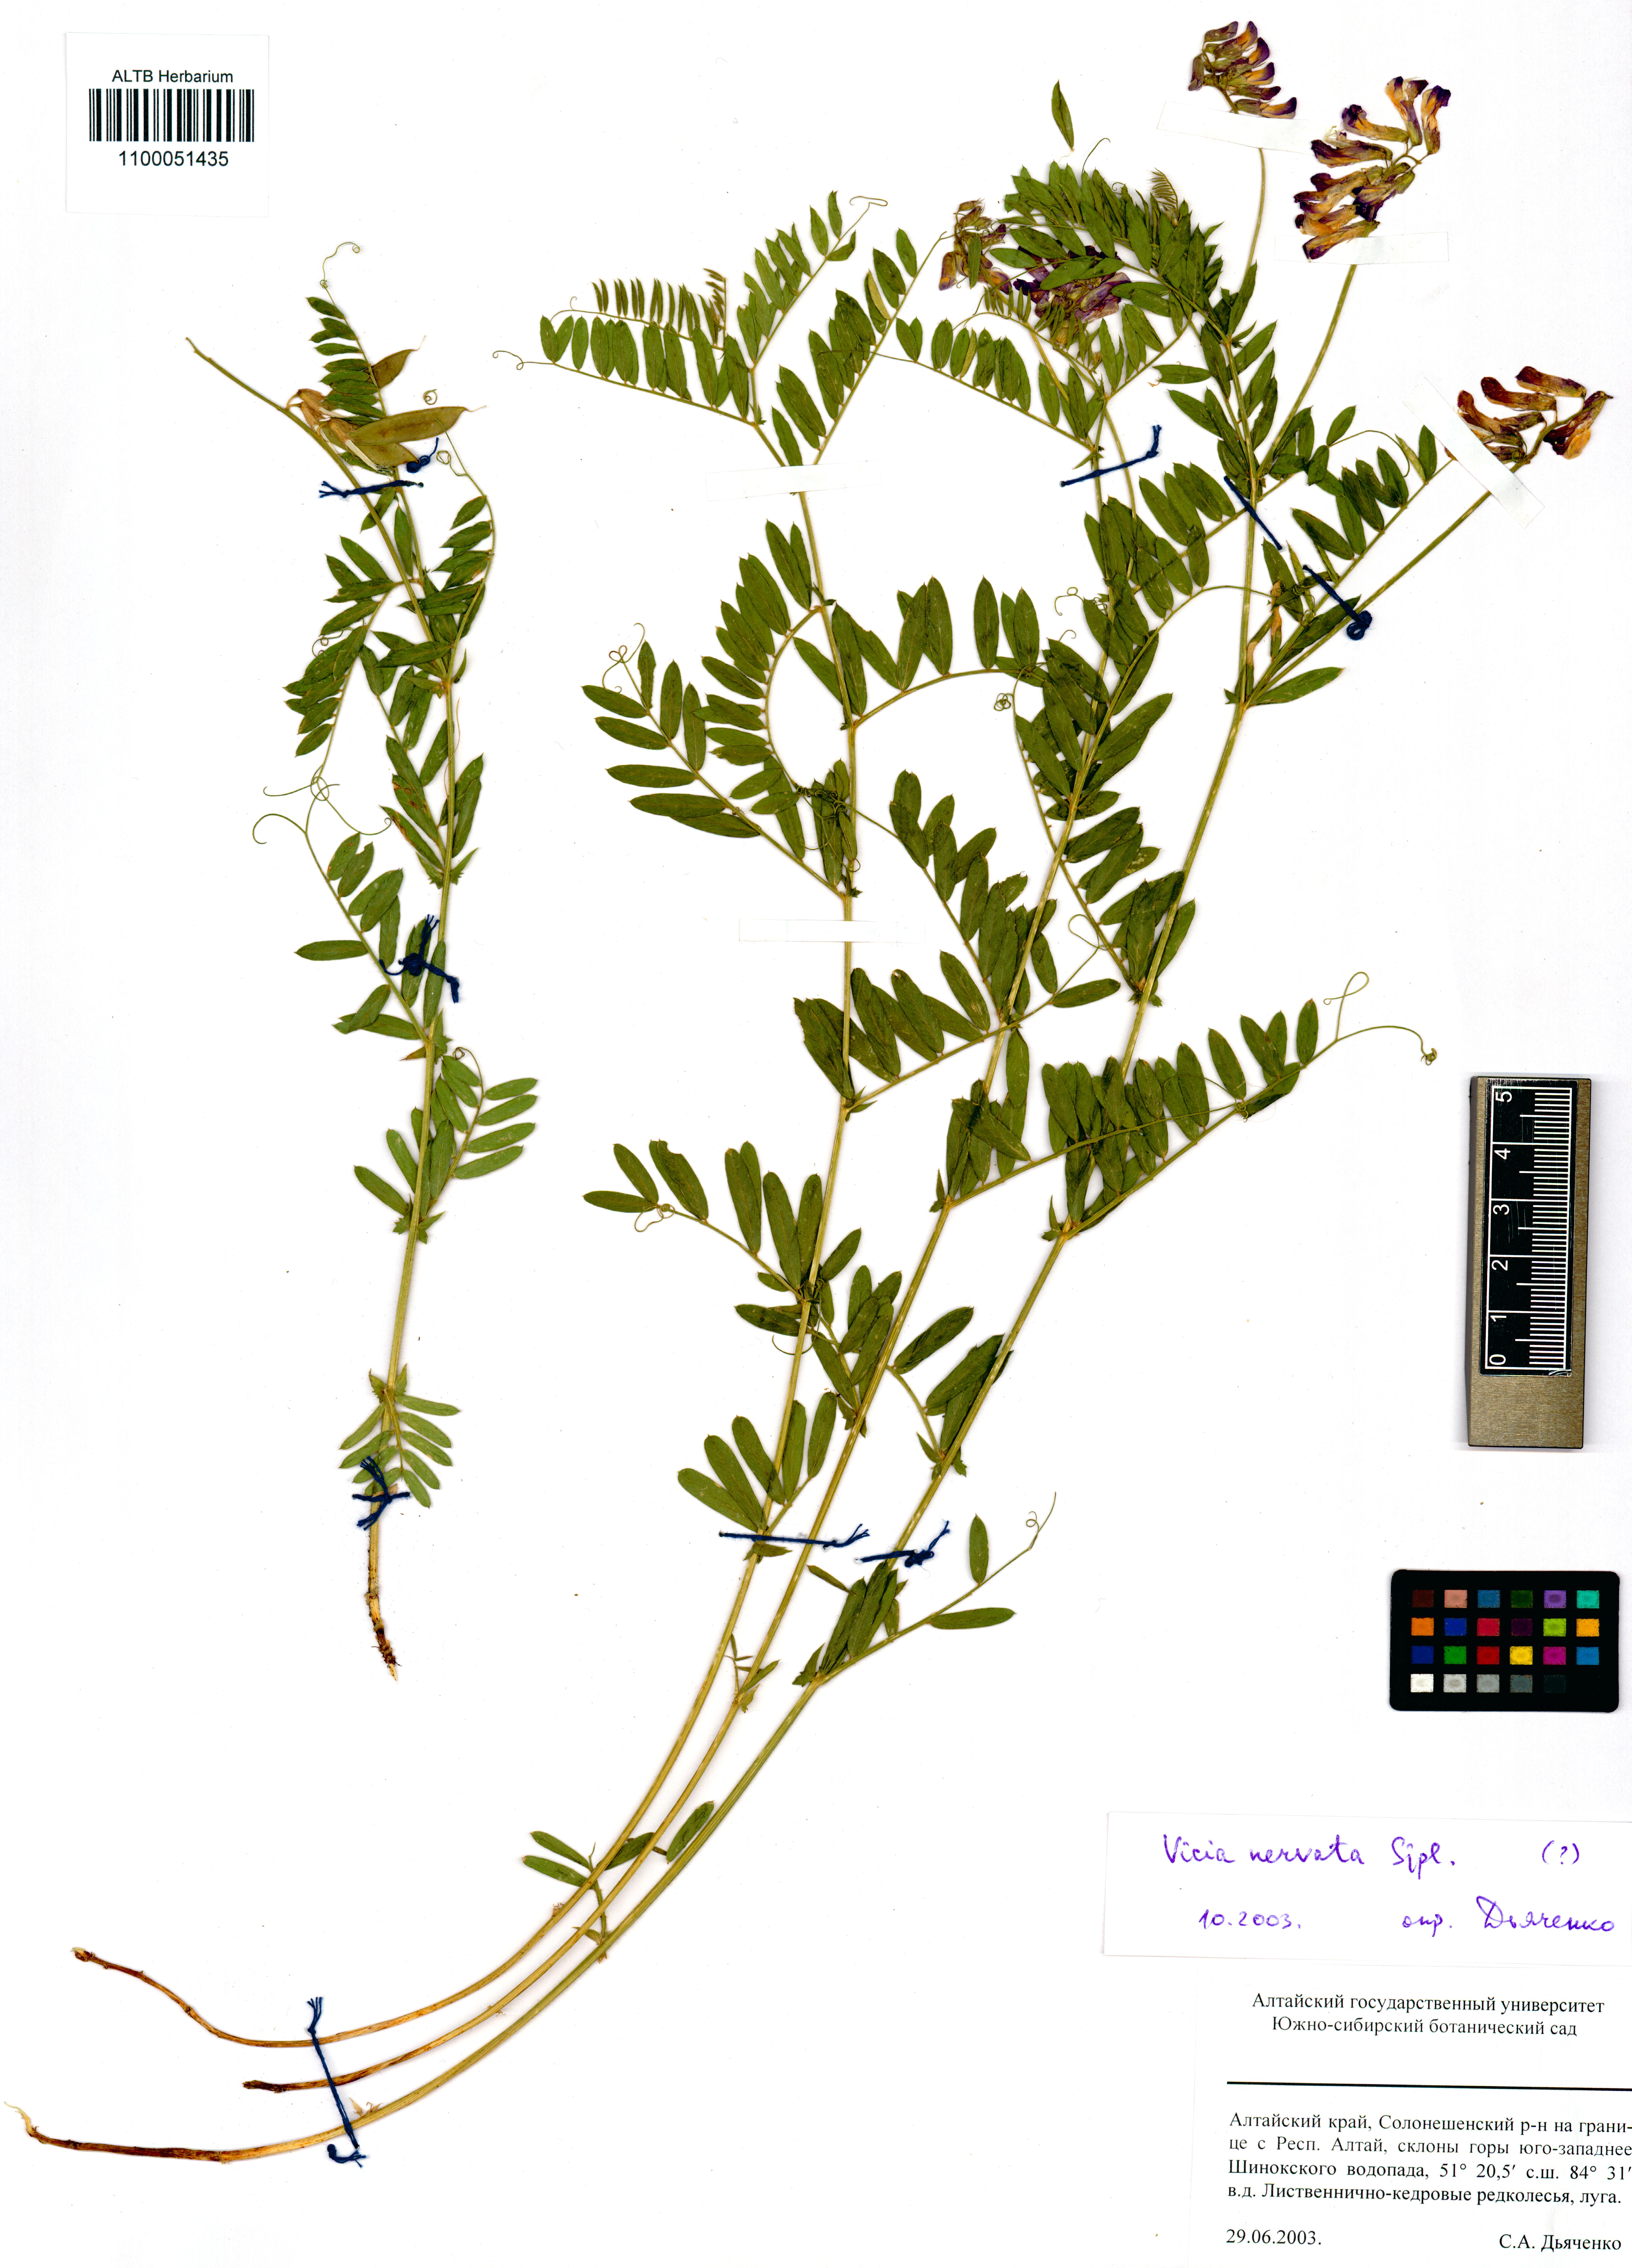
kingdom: Plantae
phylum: Tracheophyta
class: Magnoliopsida
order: Fabales
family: Fabaceae
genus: Vicia
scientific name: Vicia multicaulis
